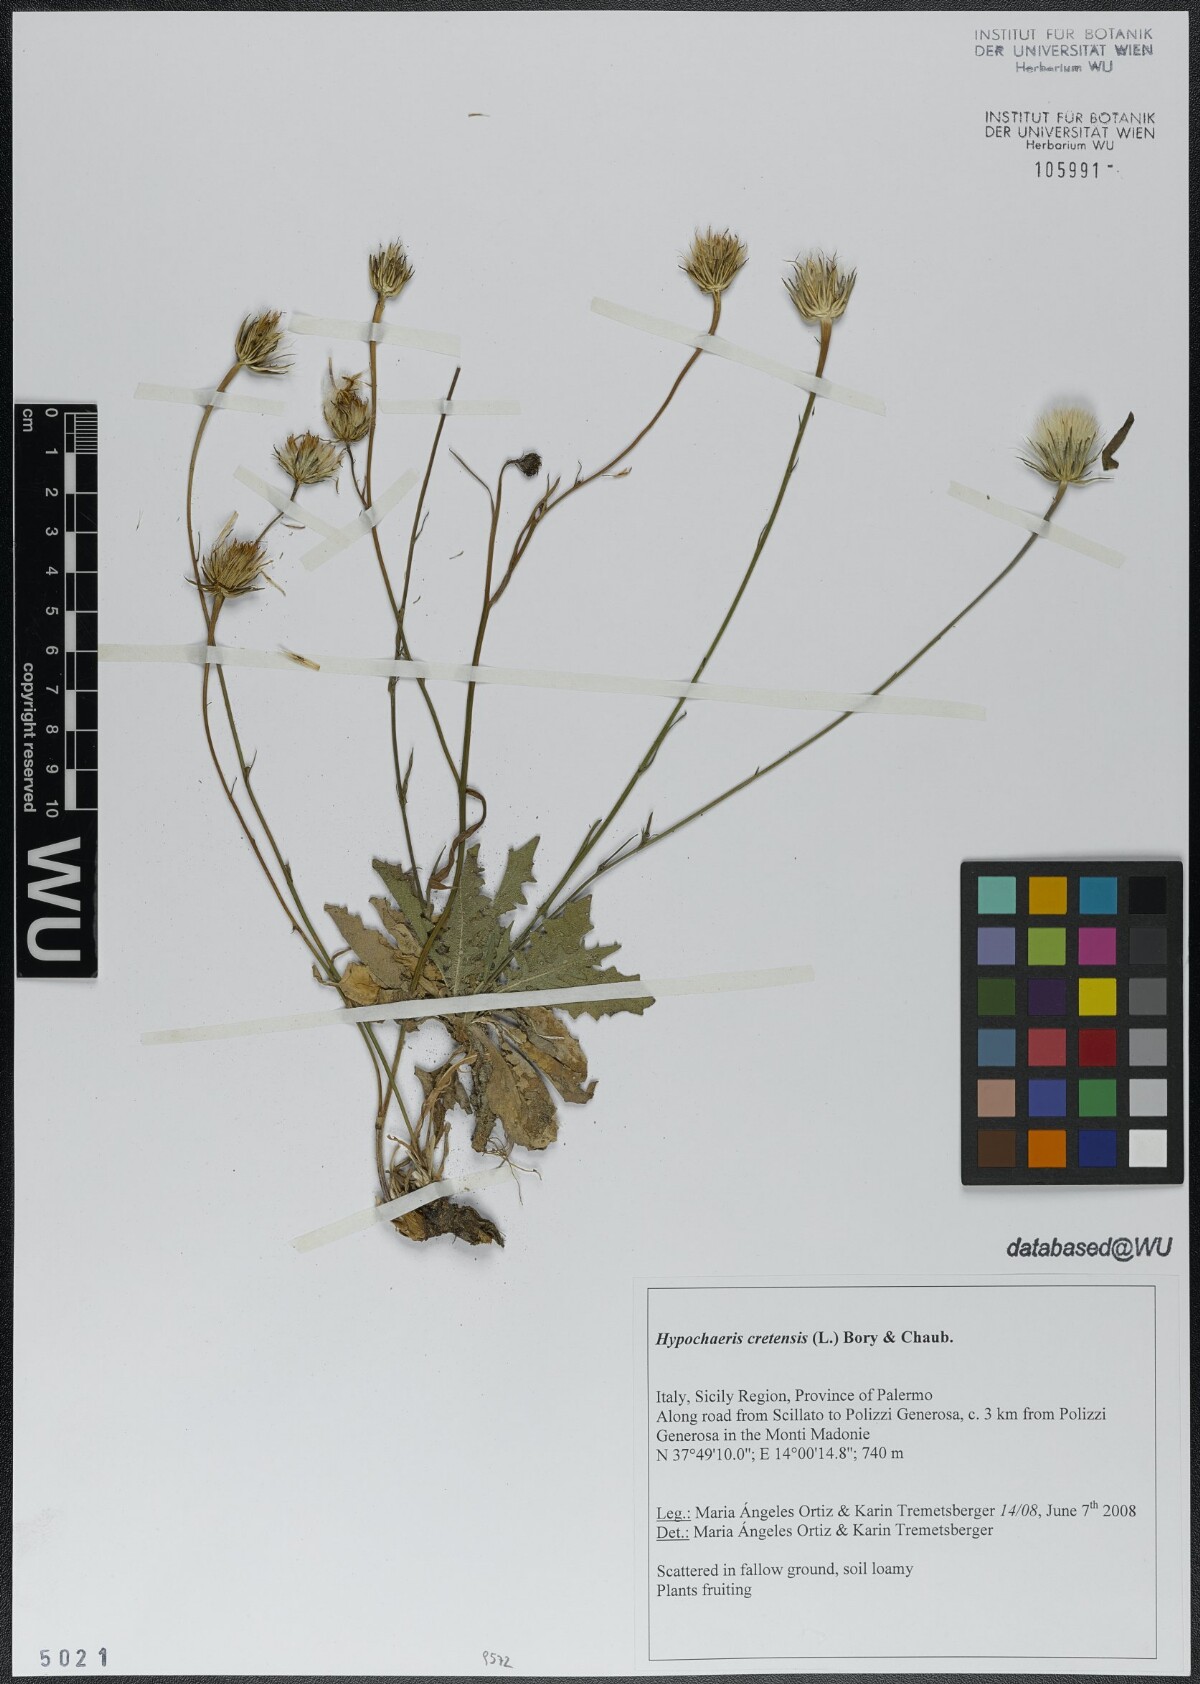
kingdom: Plantae
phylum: Tracheophyta
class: Magnoliopsida
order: Asterales
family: Asteraceae
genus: Hypochaeris
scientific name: Hypochaeris cretensis
